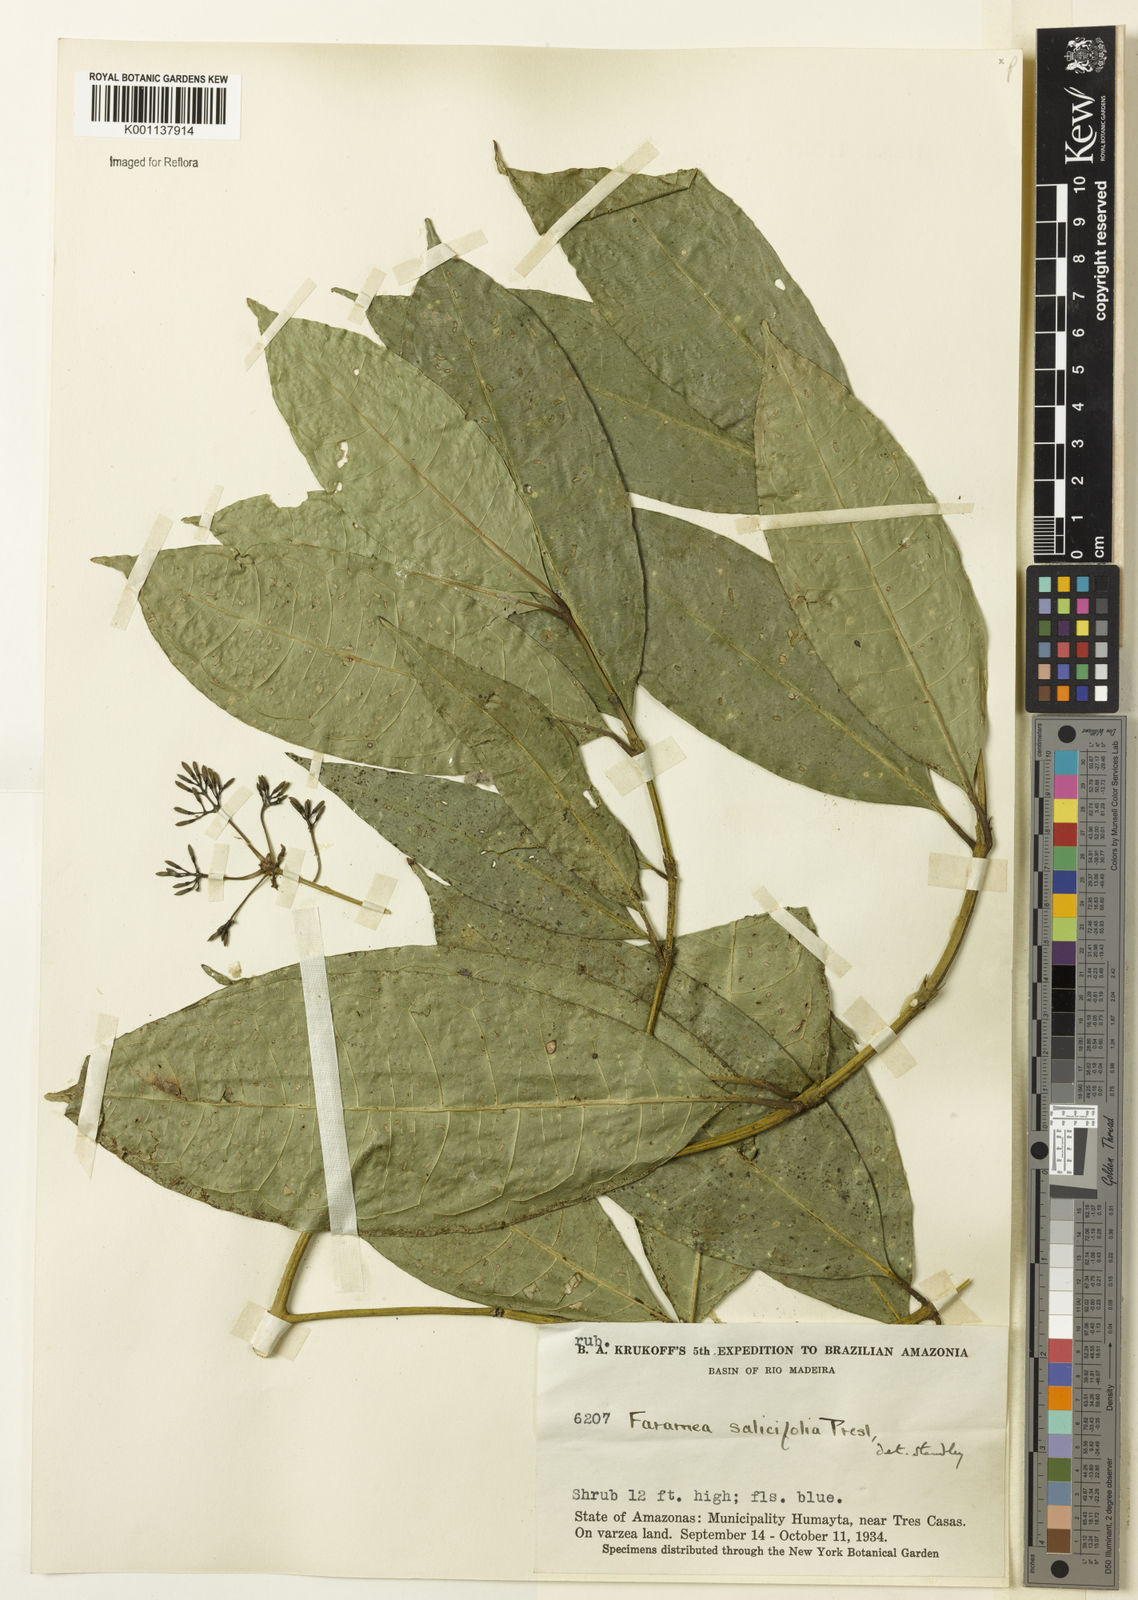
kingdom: Plantae
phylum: Tracheophyta
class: Magnoliopsida
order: Gentianales
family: Rubiaceae
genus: Faramea
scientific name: Faramea multiflora
